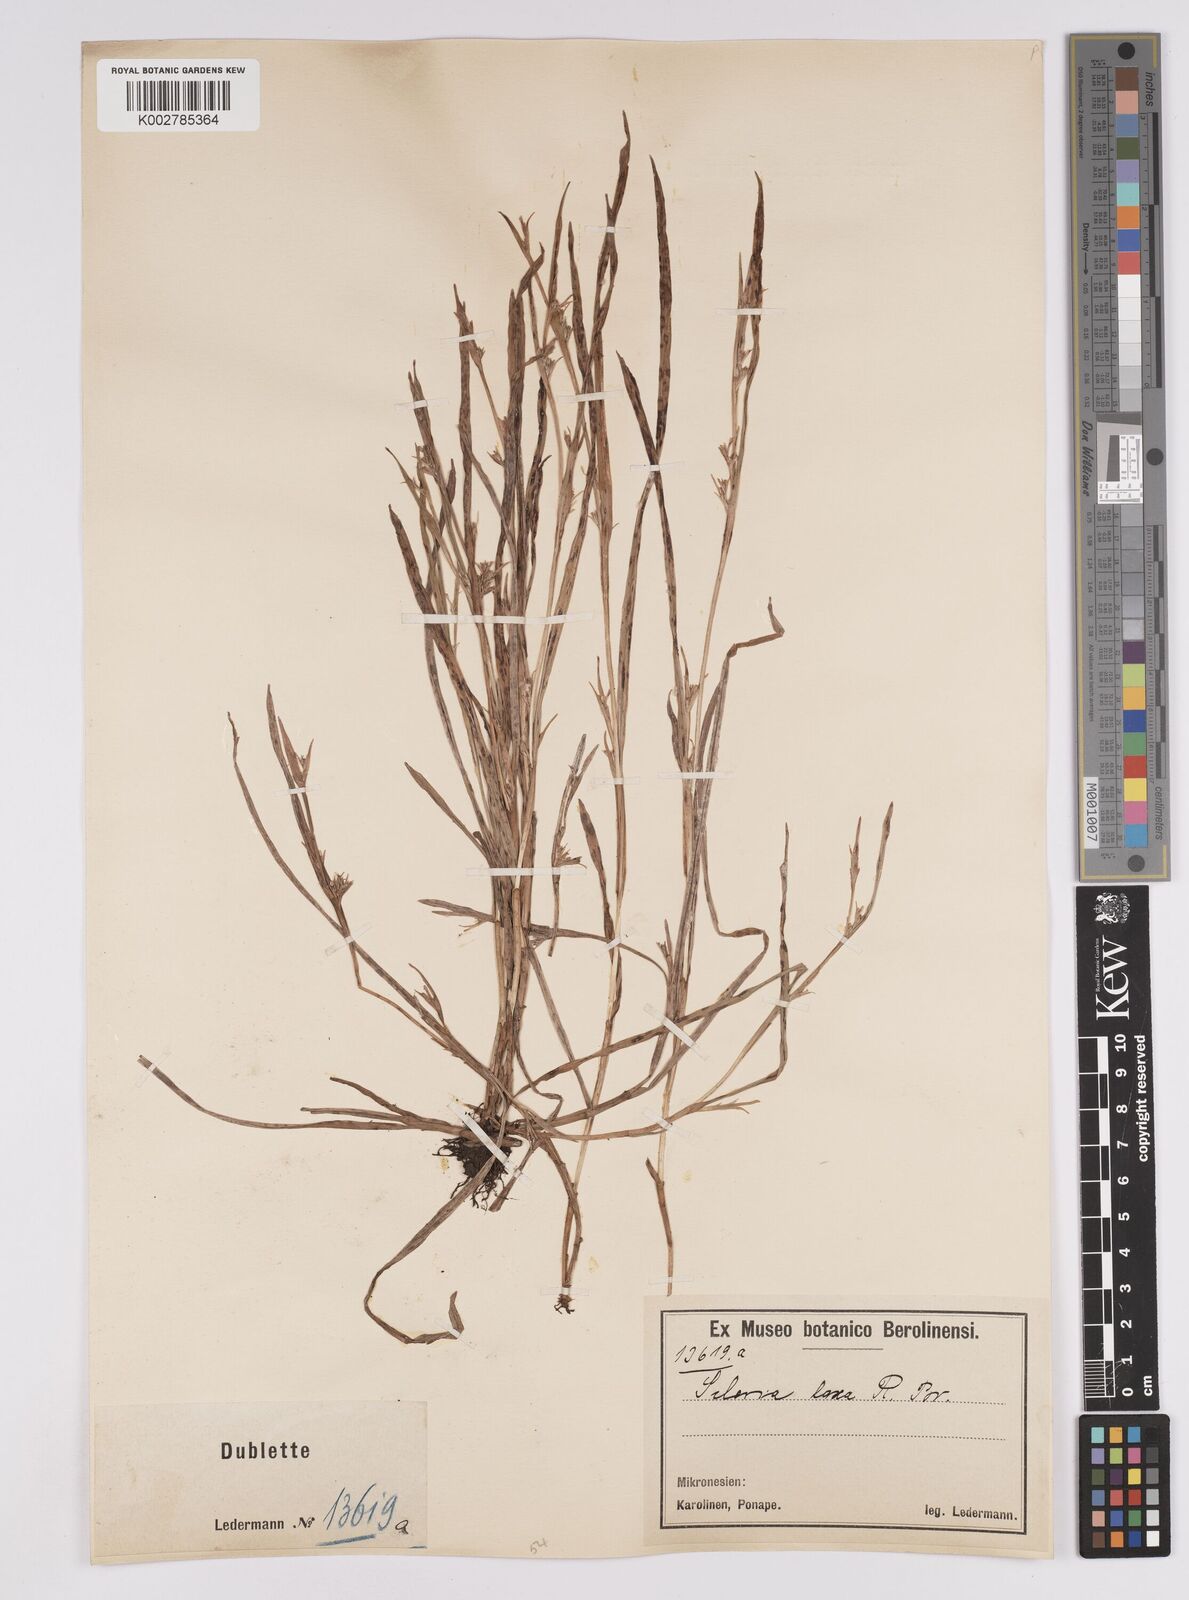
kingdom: Plantae
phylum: Tracheophyta
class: Liliopsida
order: Poales
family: Cyperaceae
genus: Scleria
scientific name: Scleria laxa
